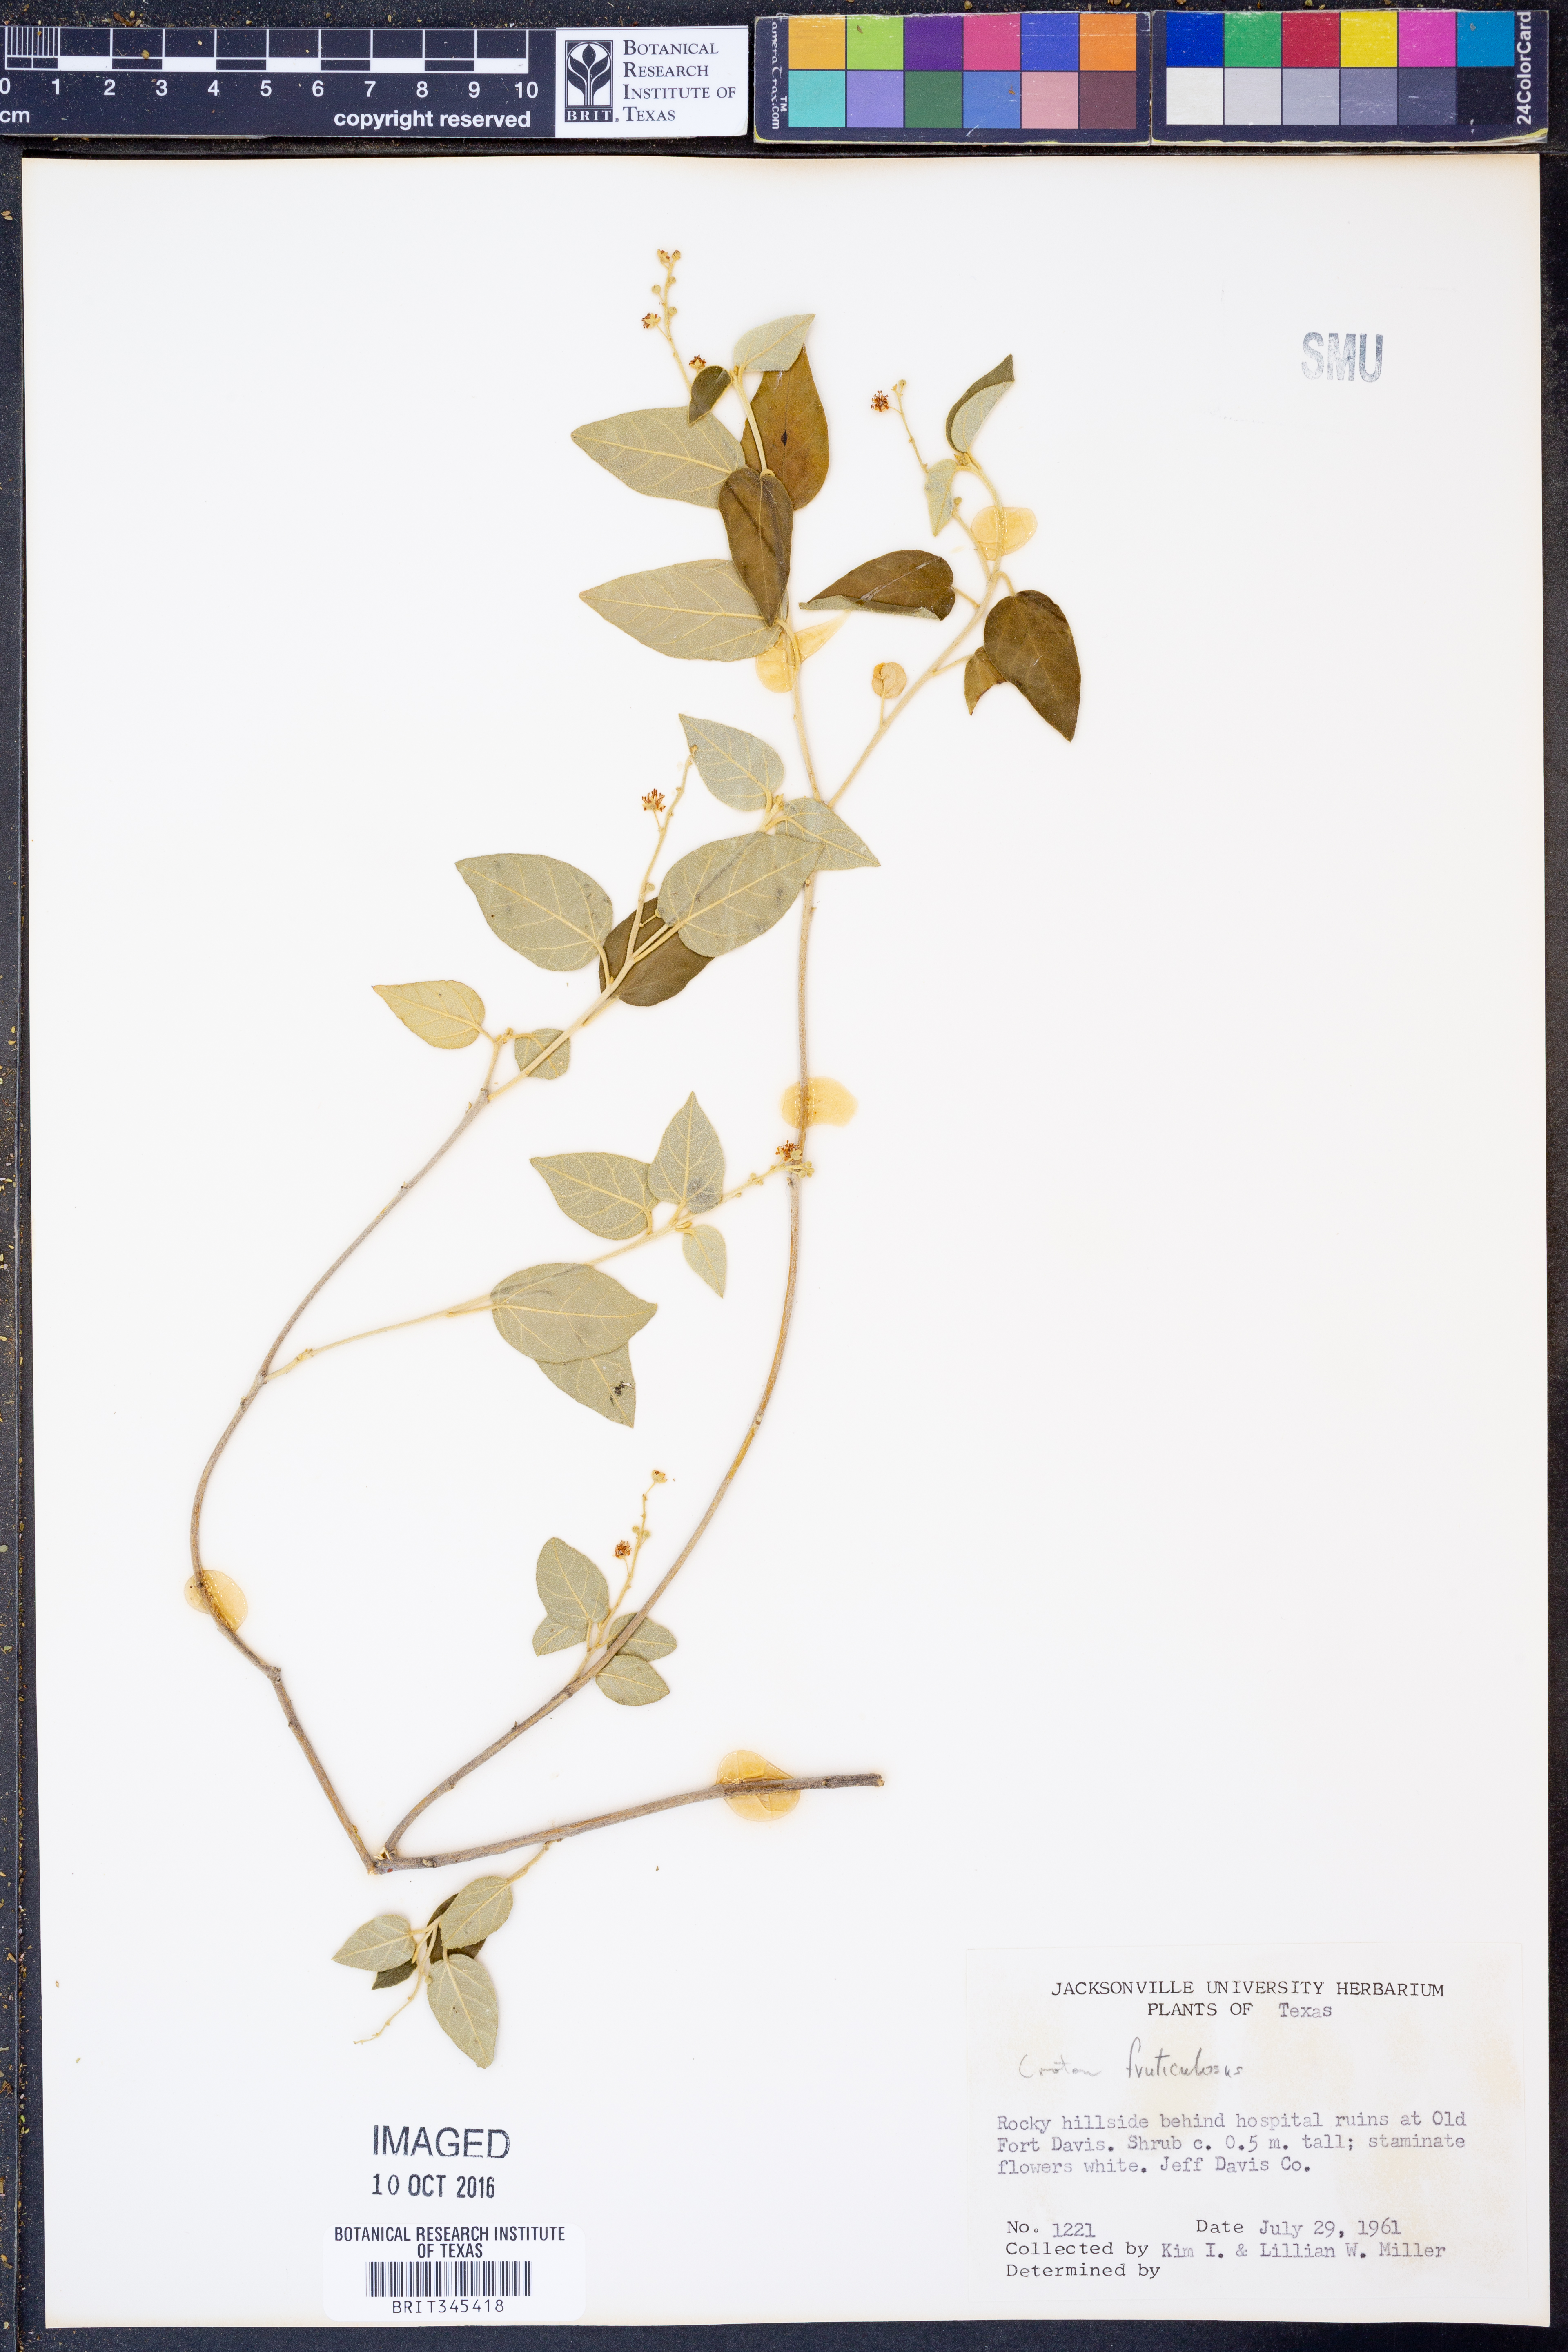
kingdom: Plantae
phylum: Tracheophyta
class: Magnoliopsida
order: Malpighiales
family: Euphorbiaceae
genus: Croton
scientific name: Croton fruticulosus
